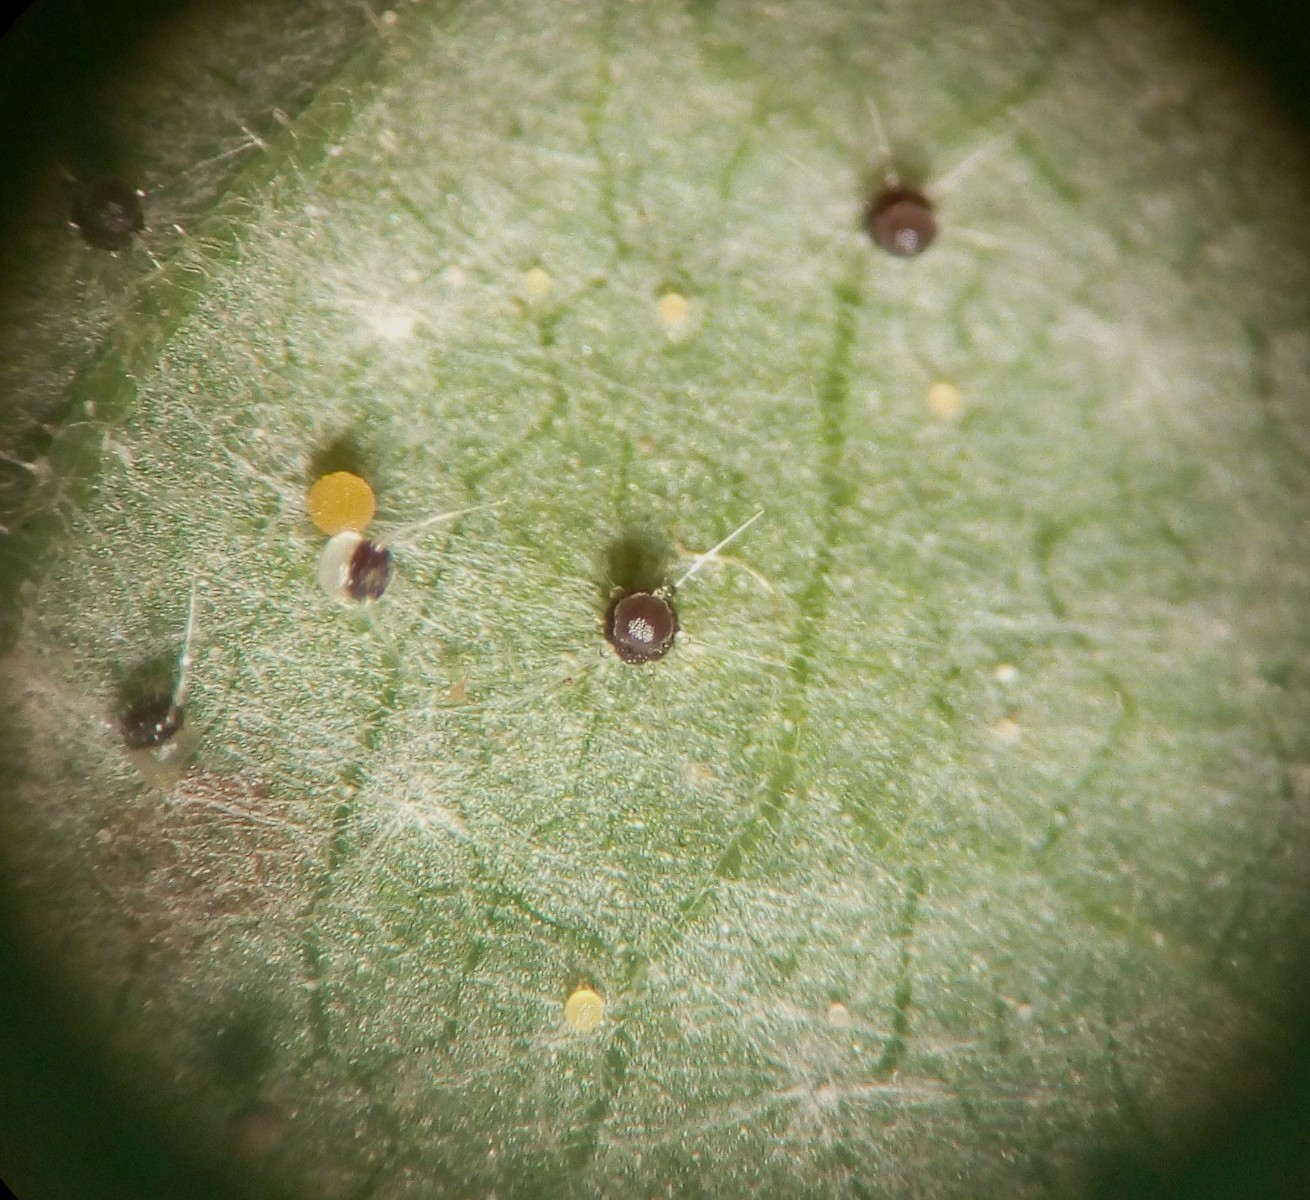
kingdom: Fungi
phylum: Ascomycota
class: Leotiomycetes
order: Helotiales
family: Erysiphaceae
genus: Phyllactinia
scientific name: Phyllactinia guttata
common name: hassel-meldug
